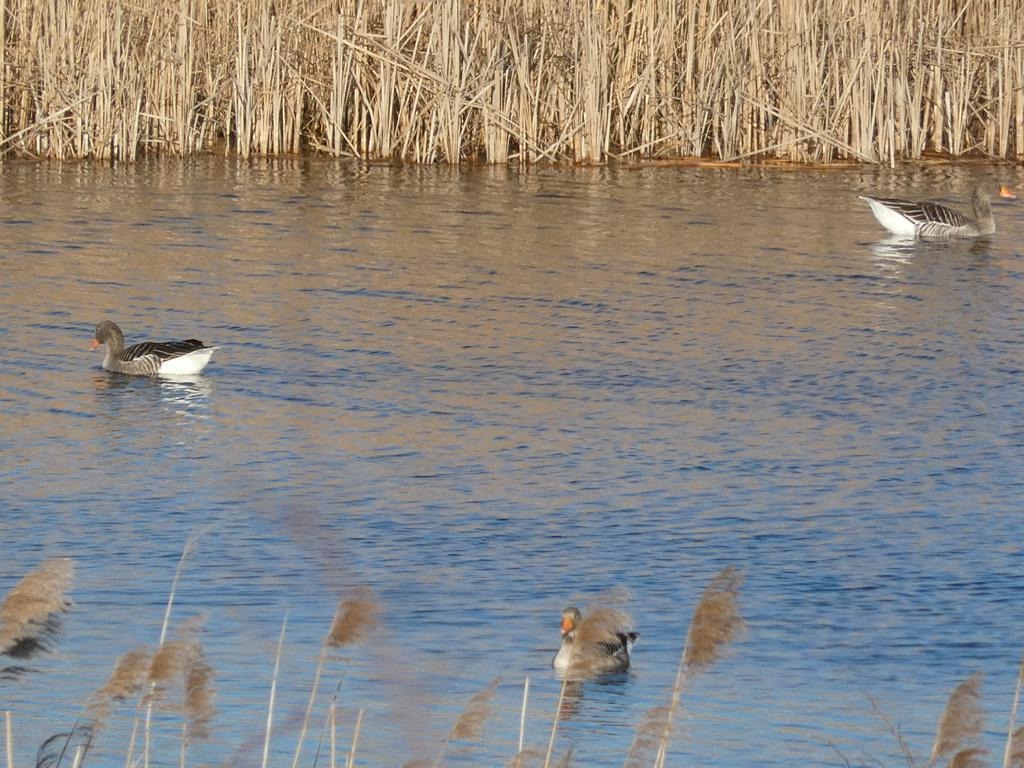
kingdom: Animalia
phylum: Chordata
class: Aves
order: Anseriformes
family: Anatidae
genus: Anser
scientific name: Anser anser
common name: Grågås
